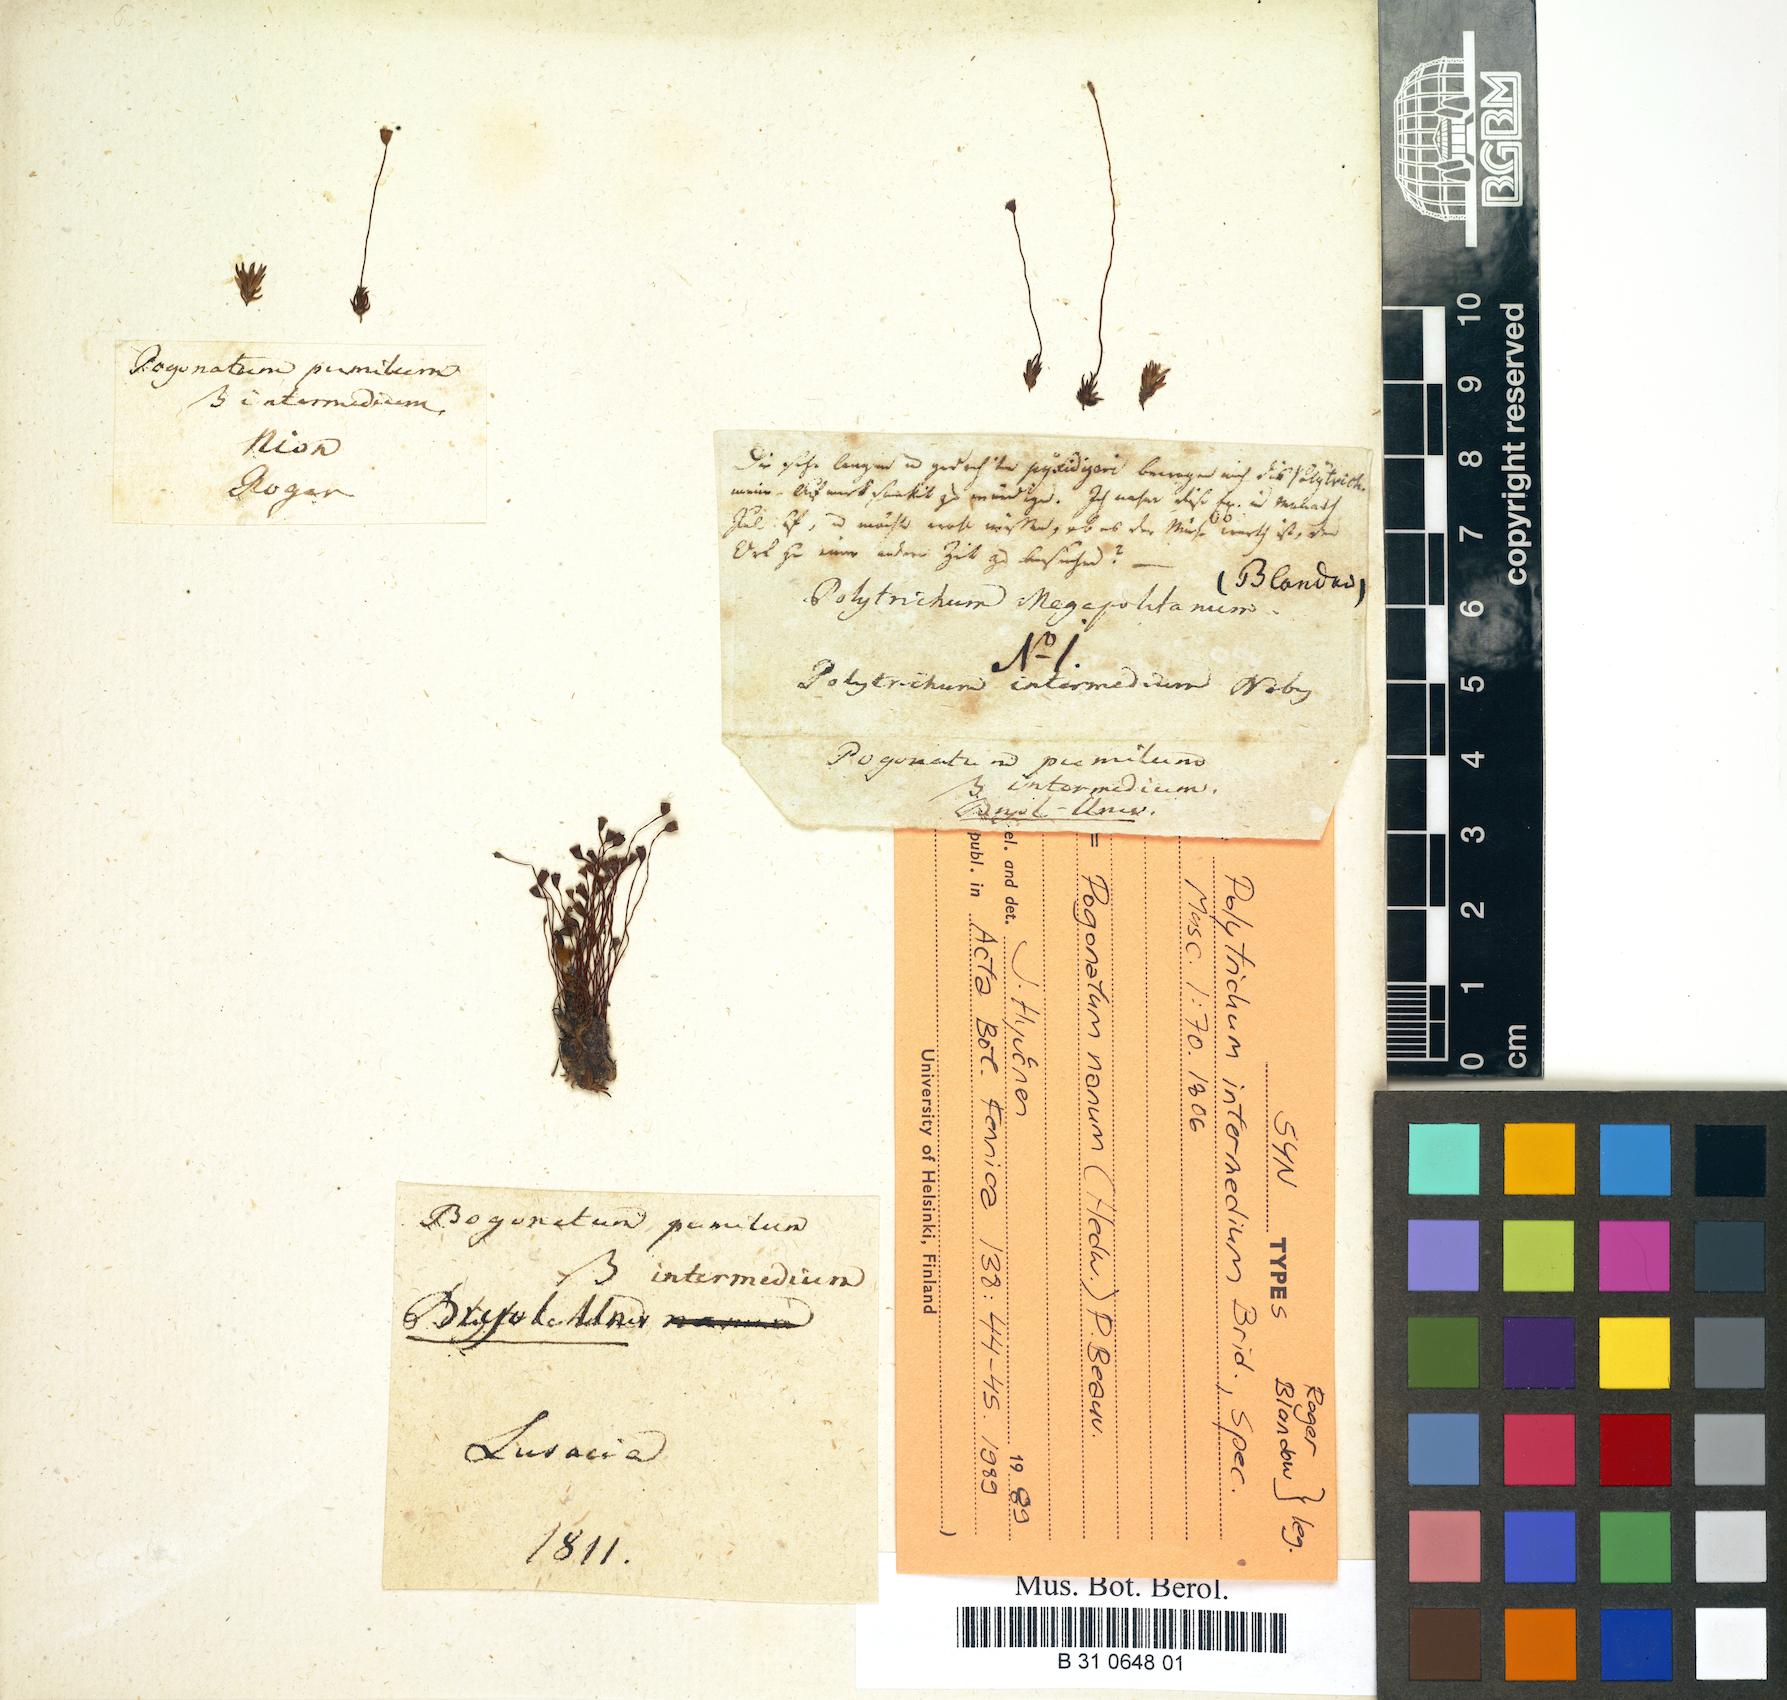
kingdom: Plantae
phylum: Bryophyta
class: Polytrichopsida
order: Polytrichales
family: Polytrichaceae
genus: Pogonatum
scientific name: Pogonatum aloides
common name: Aloe haircap
